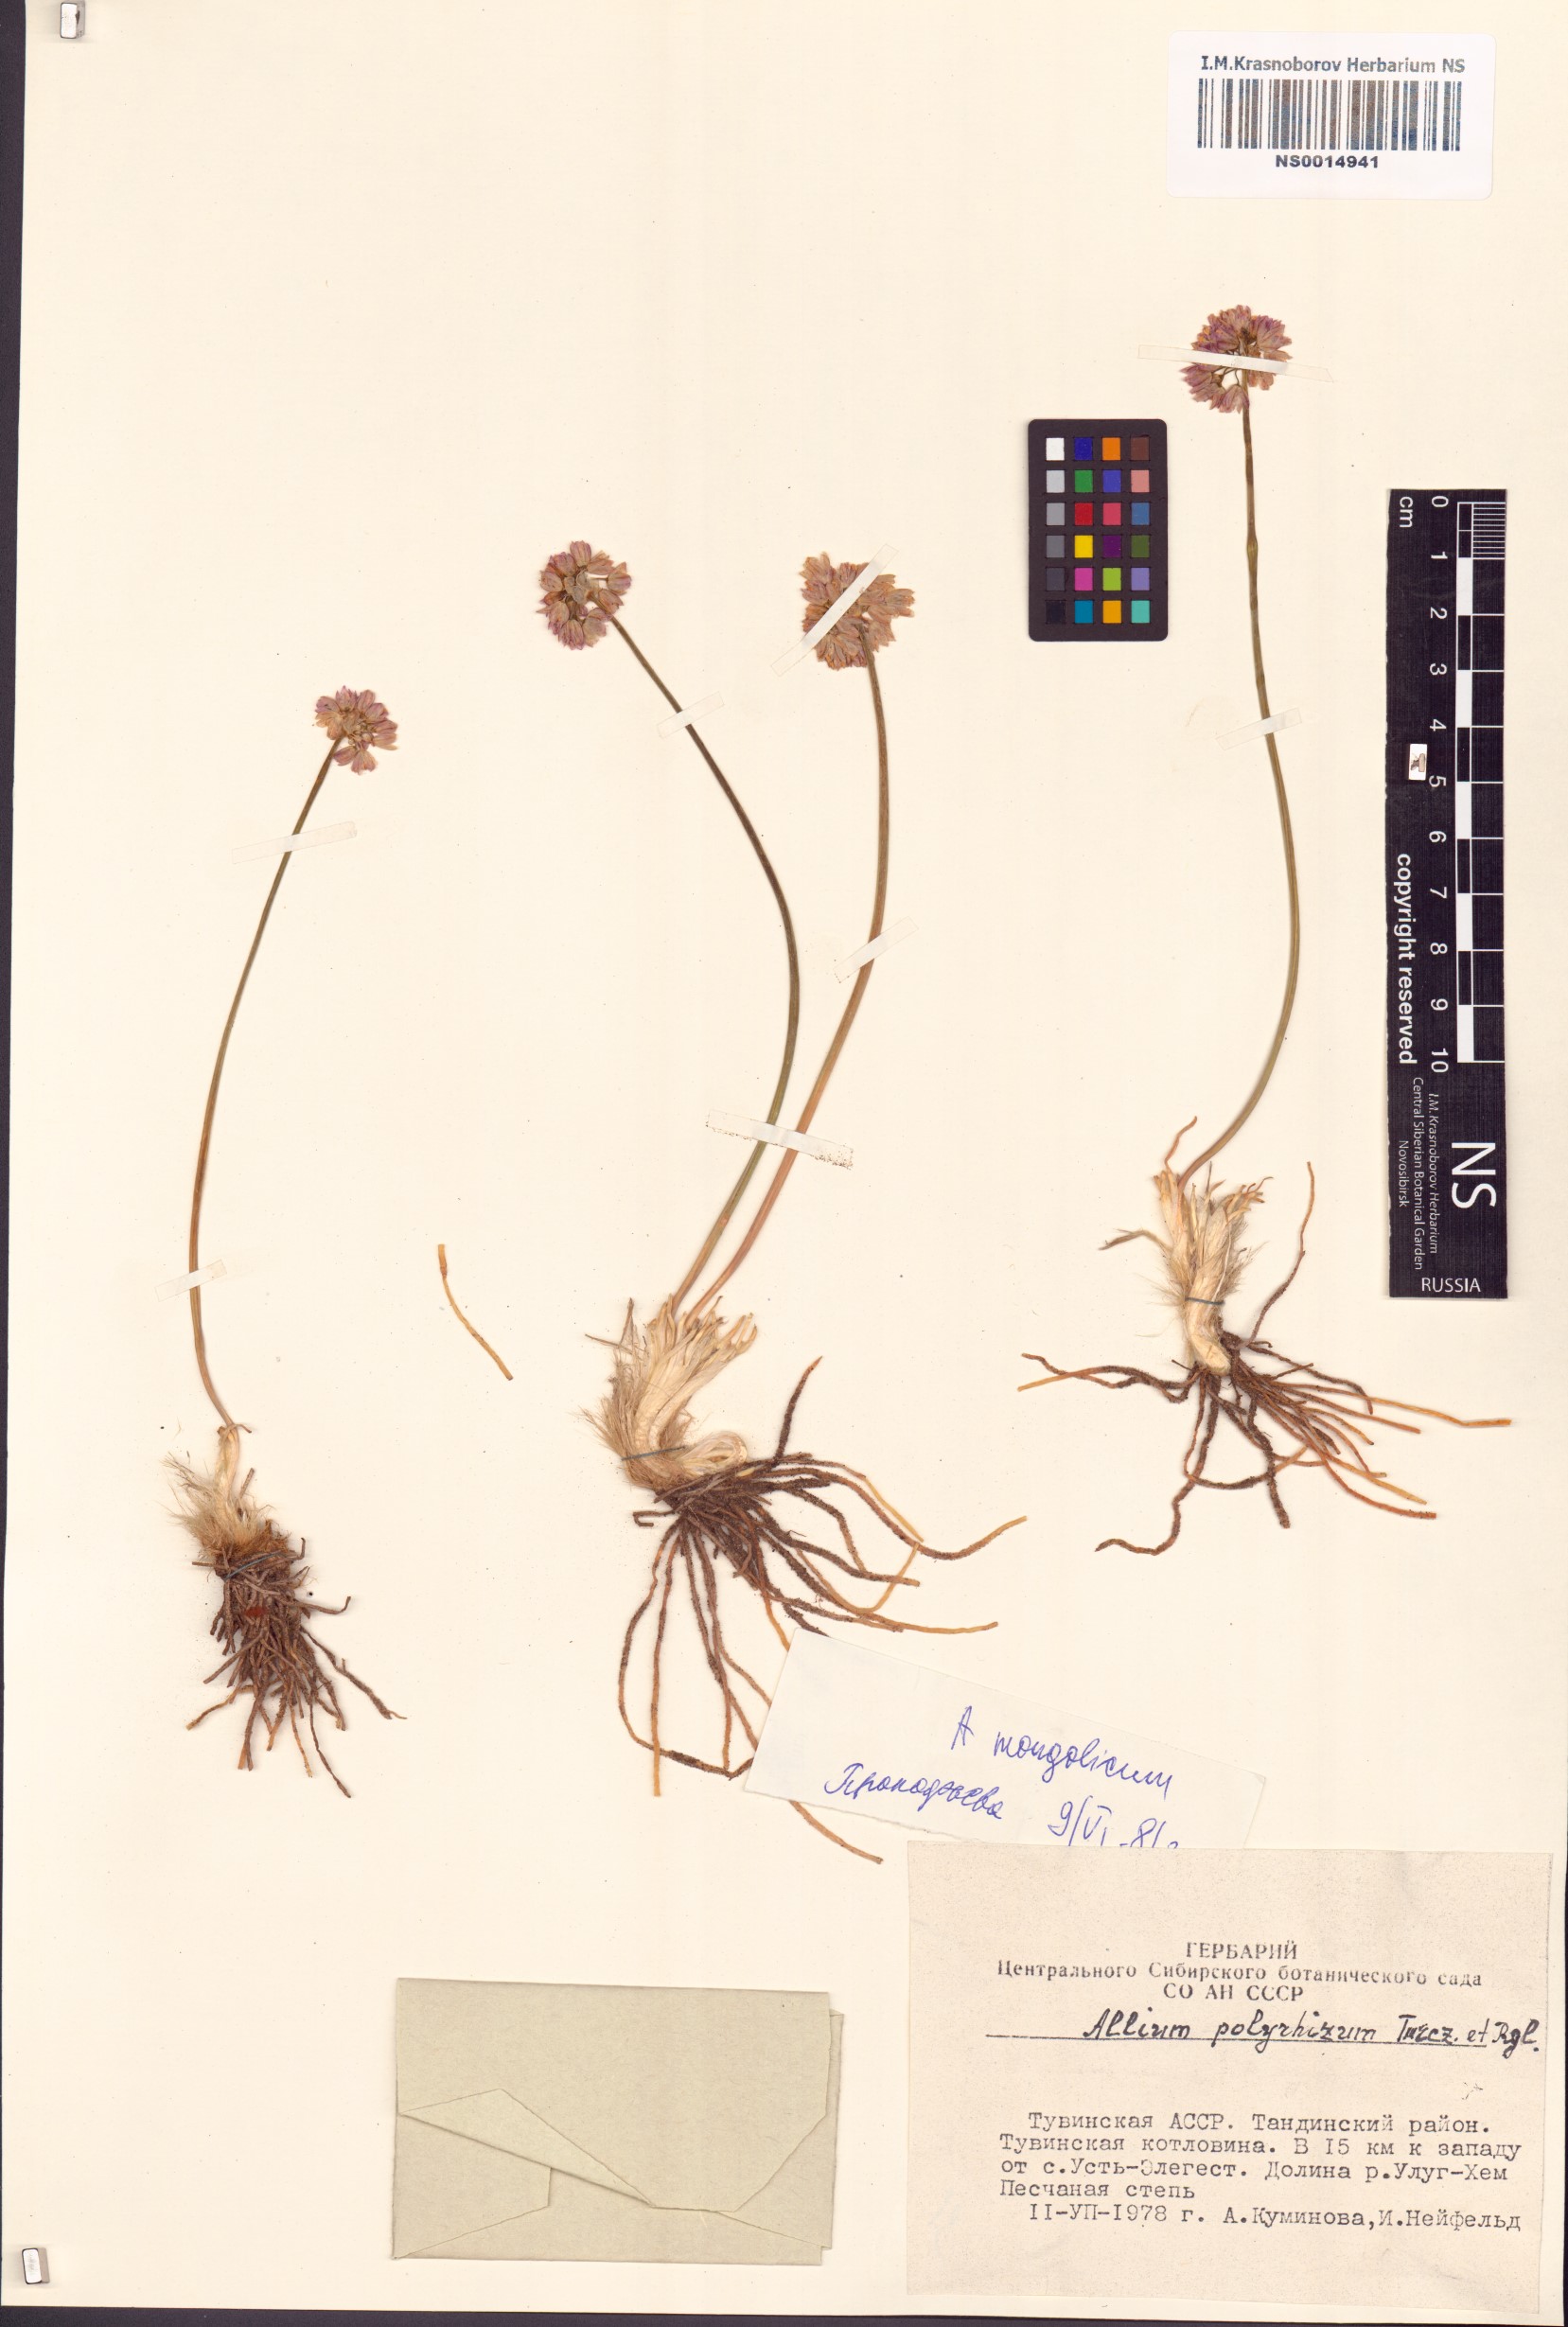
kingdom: Plantae
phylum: Tracheophyta
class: Liliopsida
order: Asparagales
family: Amaryllidaceae
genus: Allium
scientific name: Allium mongolicum
